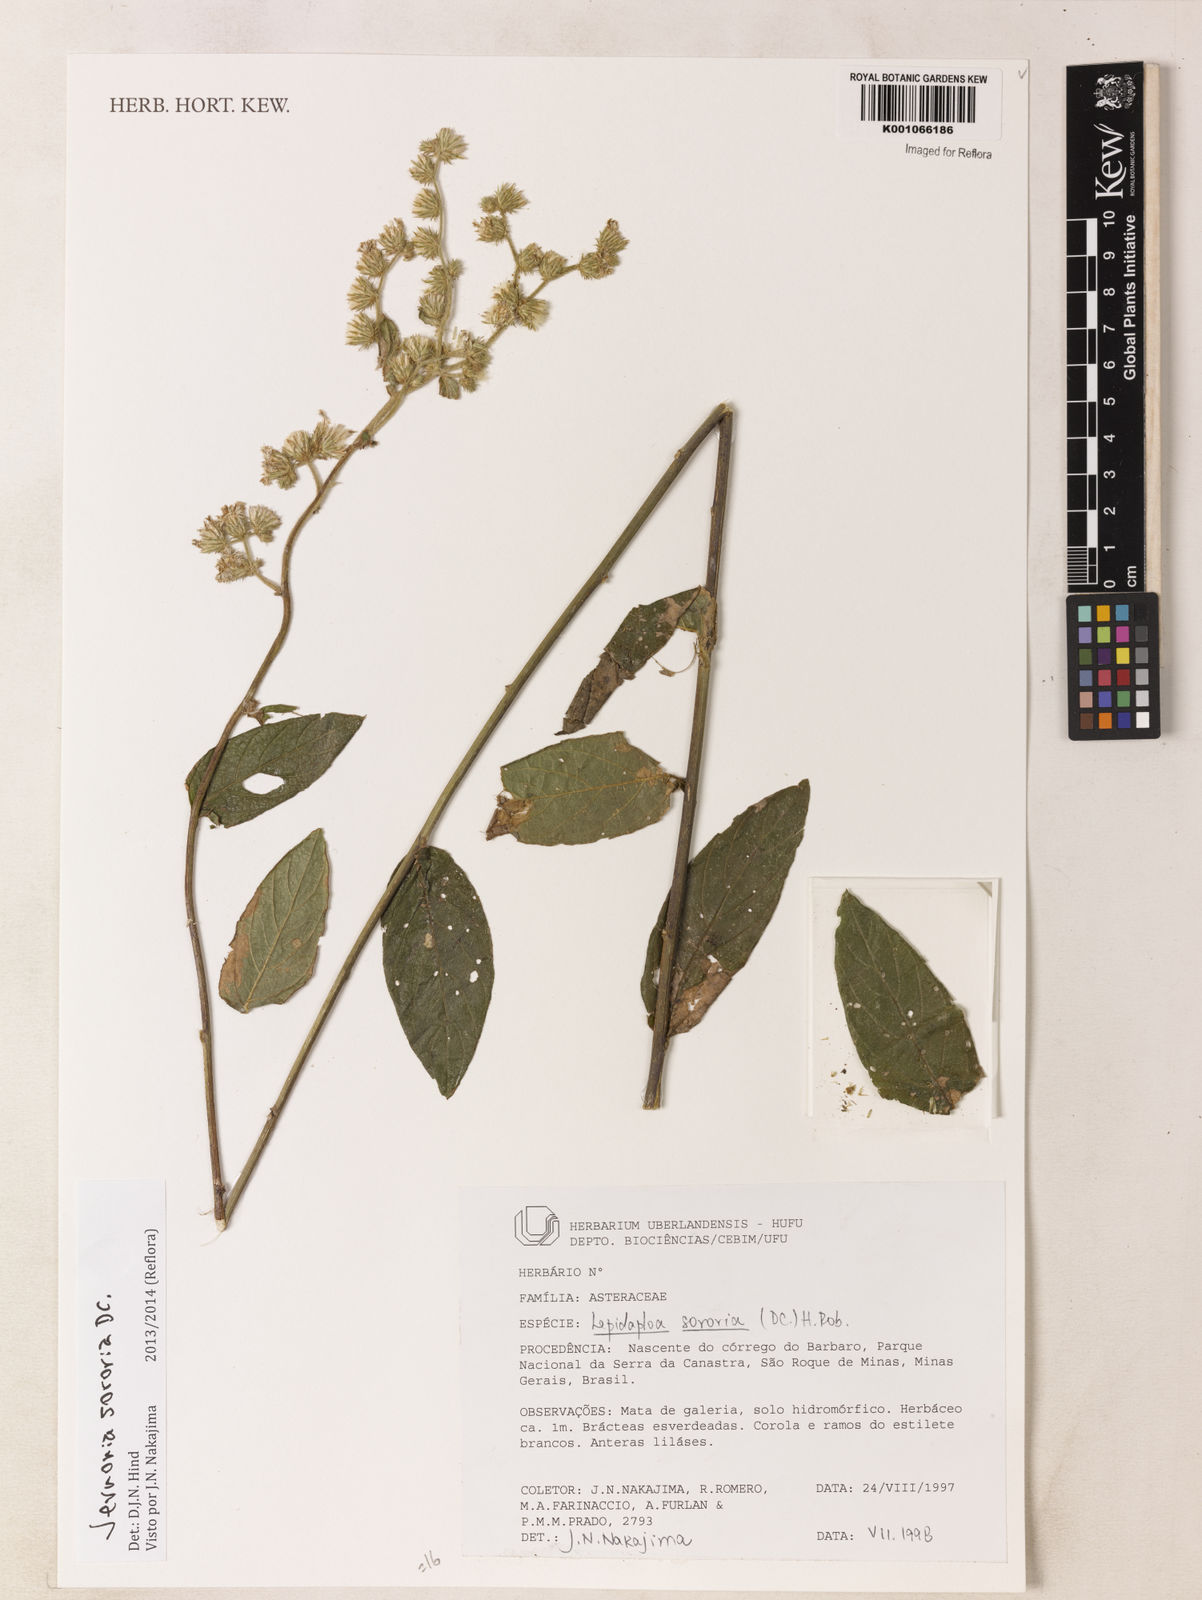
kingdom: Plantae
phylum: Tracheophyta
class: Magnoliopsida
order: Asterales
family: Asteraceae
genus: Lepidaploa
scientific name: Lepidaploa sororia
